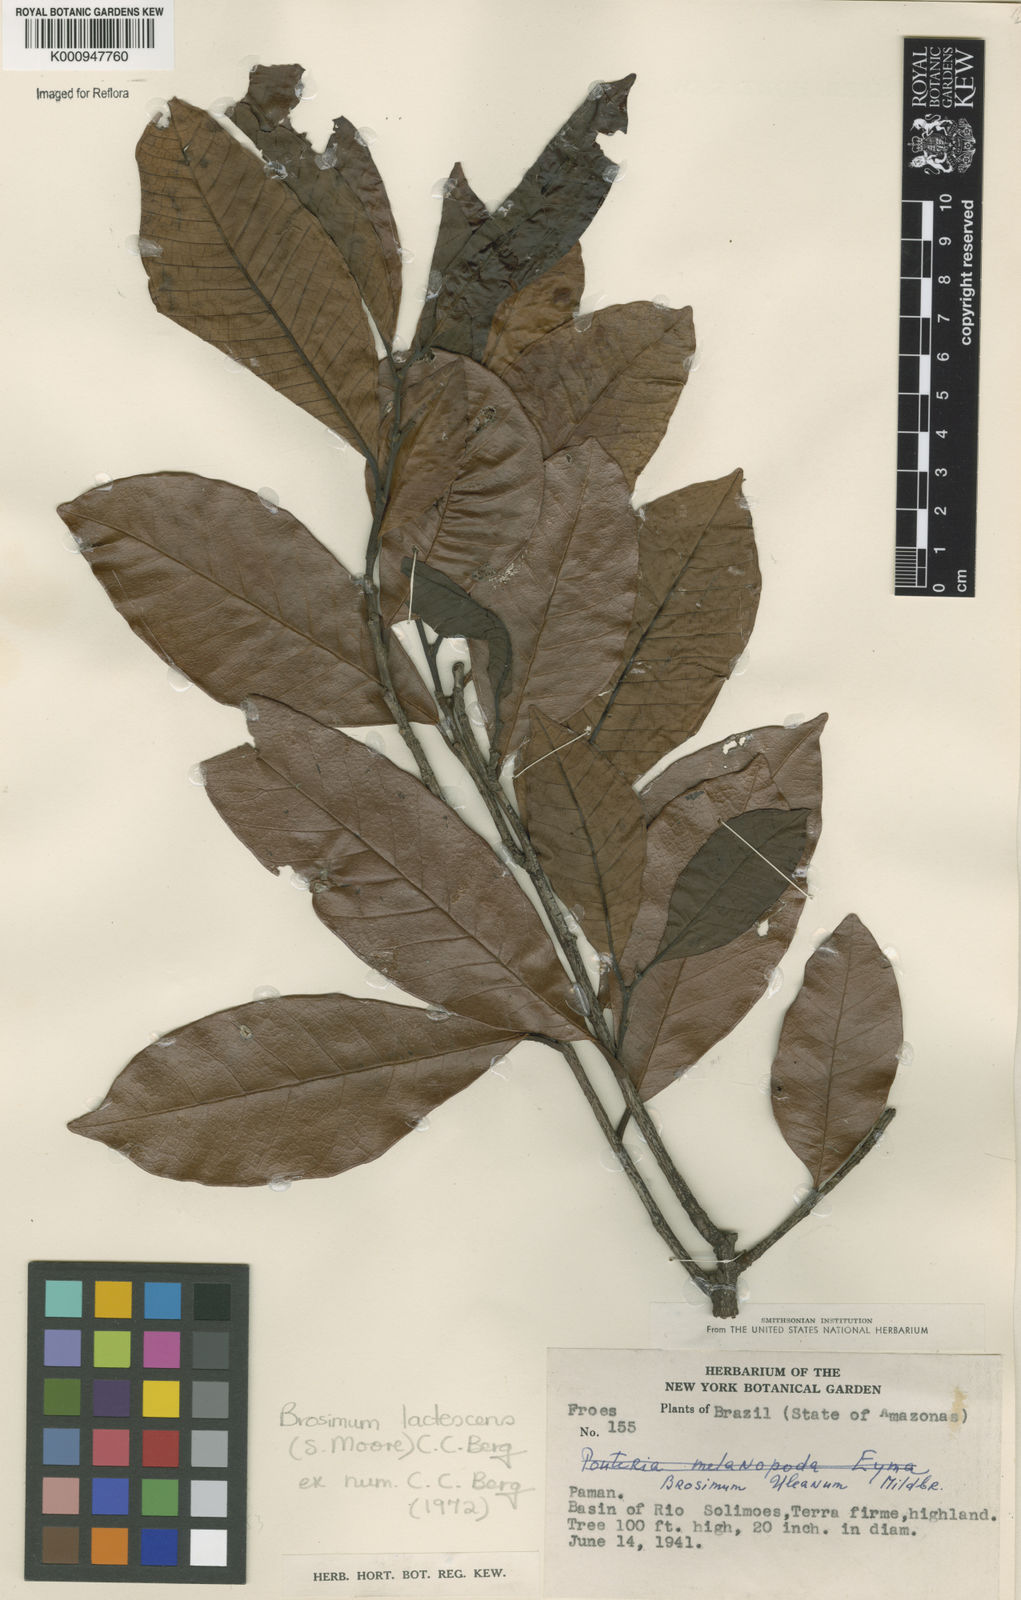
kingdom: Plantae
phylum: Tracheophyta
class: Magnoliopsida
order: Rosales
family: Moraceae
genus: Brosimum
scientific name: Brosimum lactescens
